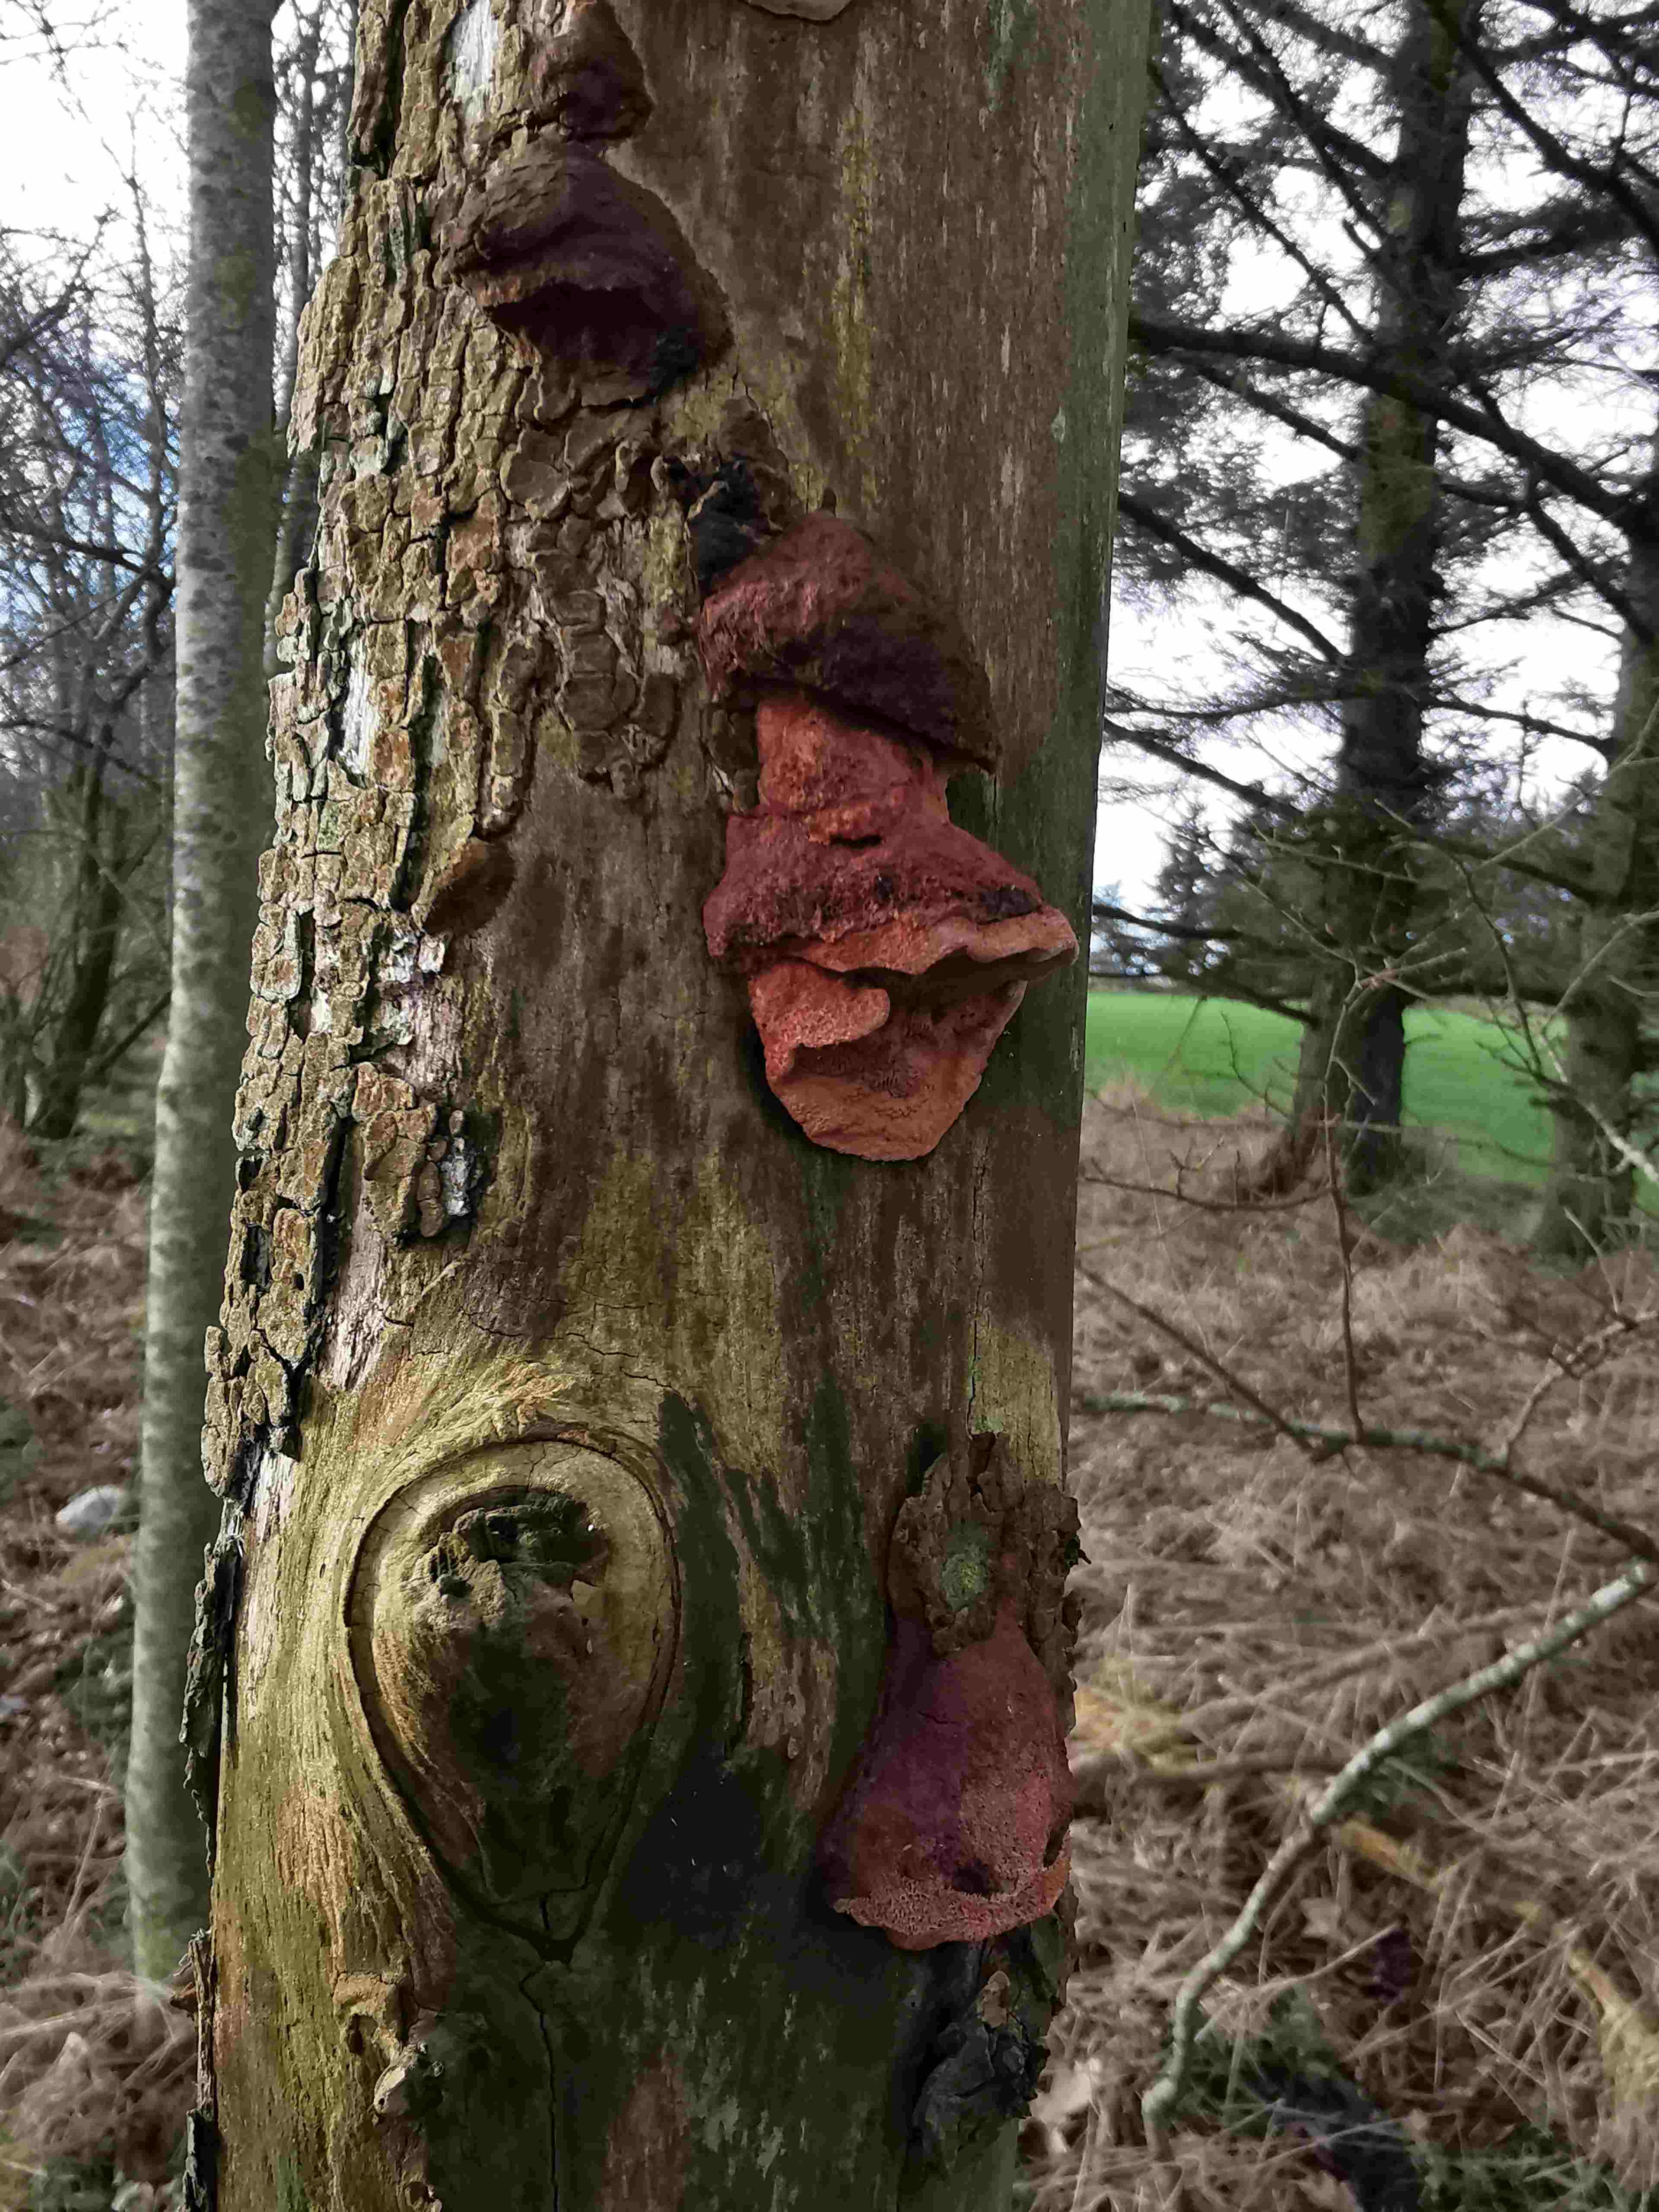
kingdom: Fungi
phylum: Basidiomycota
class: Agaricomycetes
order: Polyporales
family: Phanerochaetaceae
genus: Hapalopilus
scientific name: Hapalopilus rutilans
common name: rødlig okkerporesvamp
